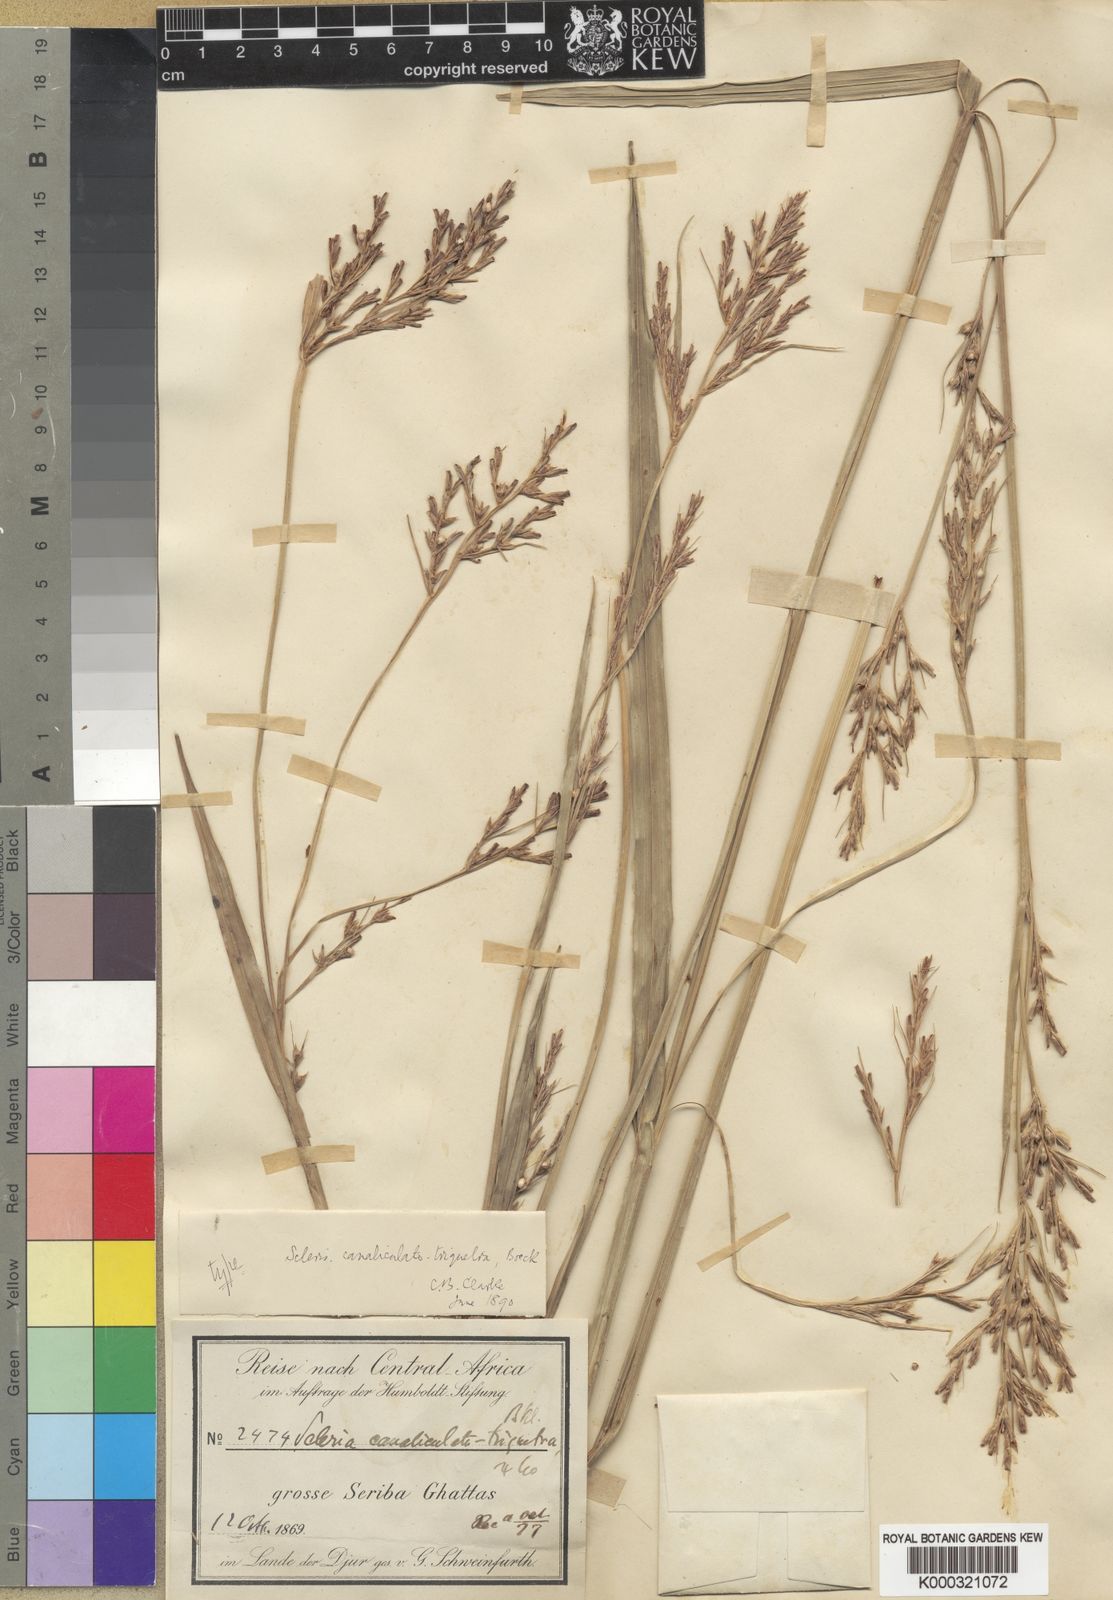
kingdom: Plantae
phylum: Tracheophyta
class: Liliopsida
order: Poales
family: Cyperaceae
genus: Scleria
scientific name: Scleria lagoensis
